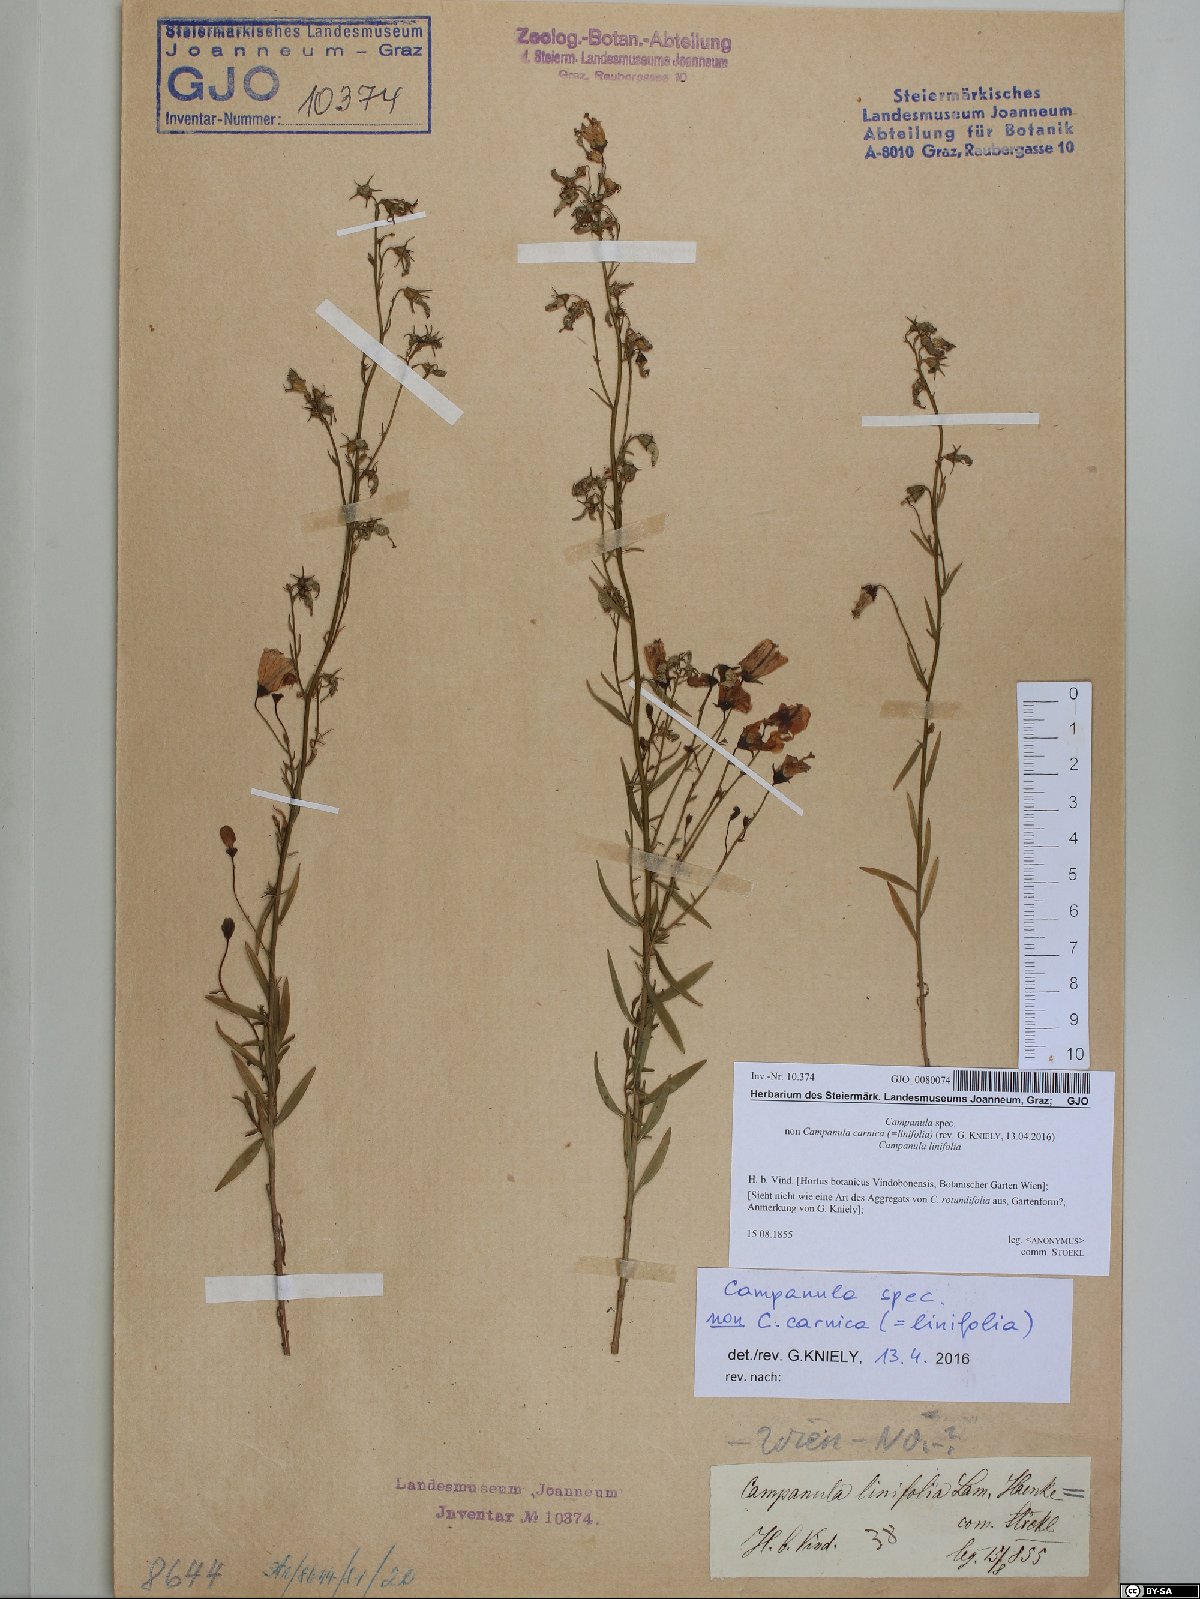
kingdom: Plantae
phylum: Tracheophyta
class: Magnoliopsida
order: Asterales
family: Campanulaceae
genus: Campanula
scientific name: Campanula
